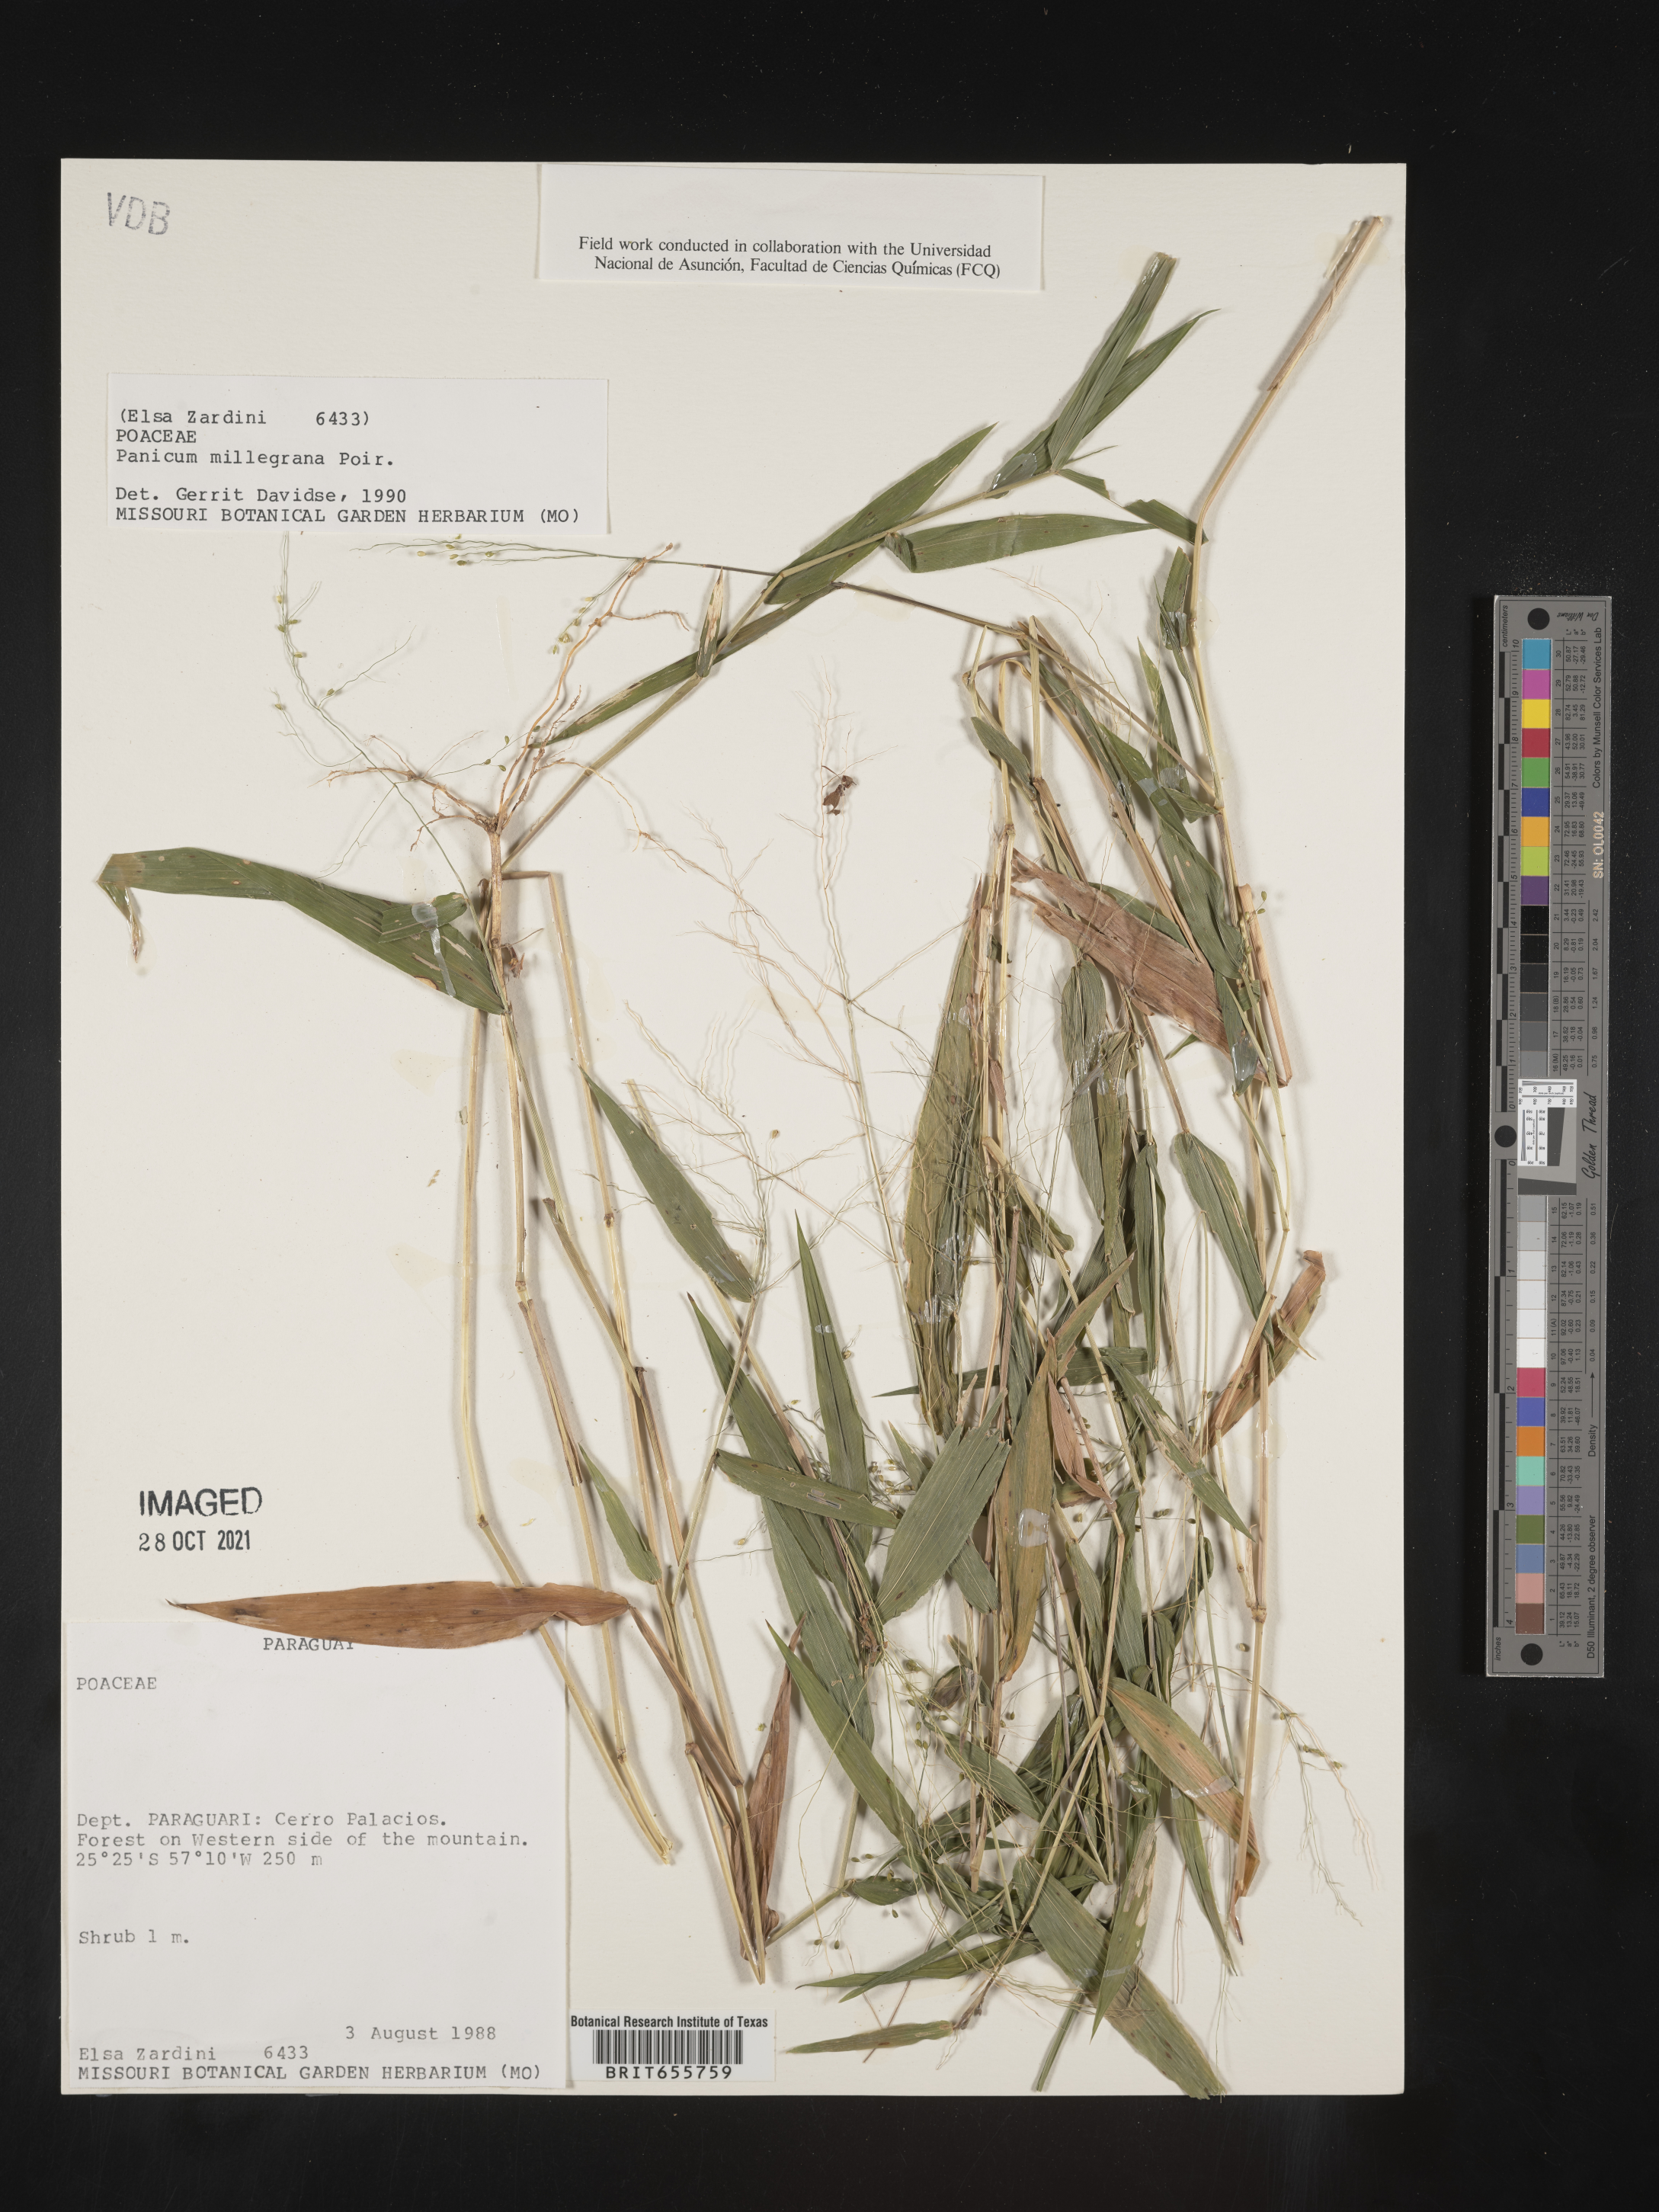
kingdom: Plantae
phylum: Tracheophyta
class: Liliopsida
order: Poales
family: Poaceae
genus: Panicum
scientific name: Panicum
